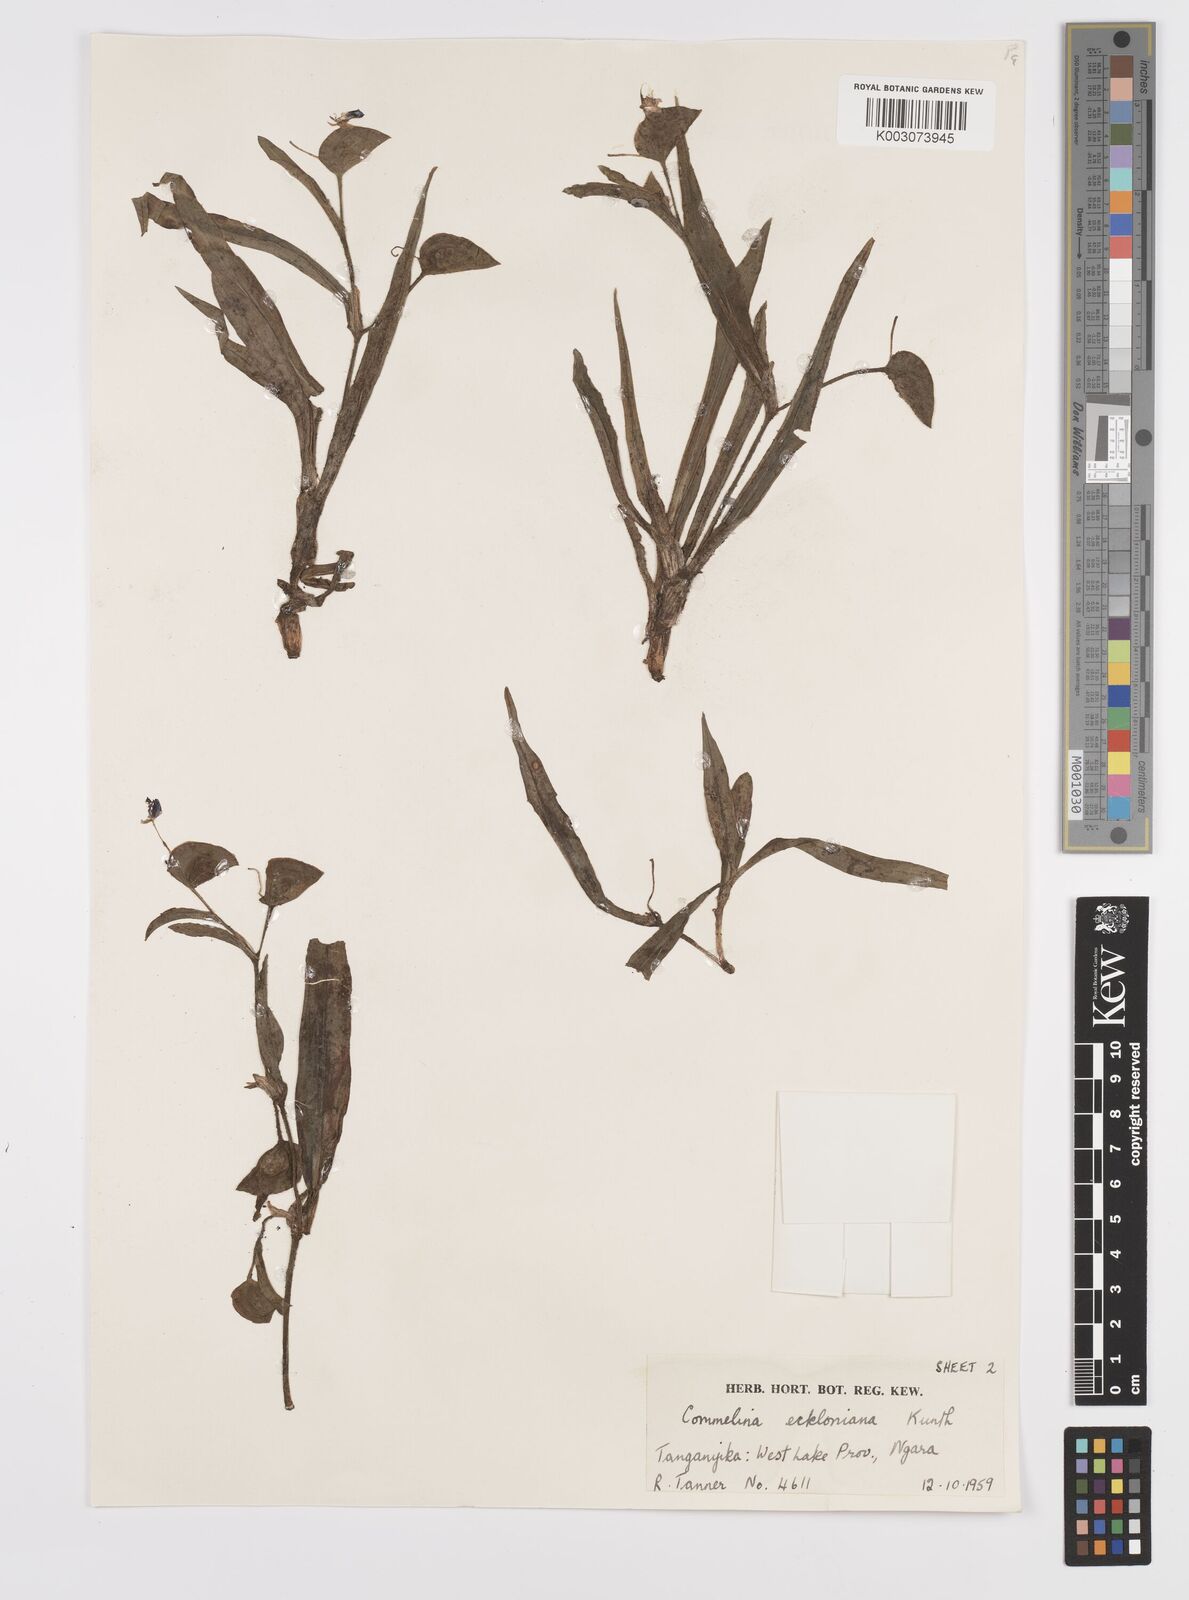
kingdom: Plantae
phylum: Tracheophyta
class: Liliopsida
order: Commelinales
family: Commelinaceae
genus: Commelina
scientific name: Commelina eckloniana
